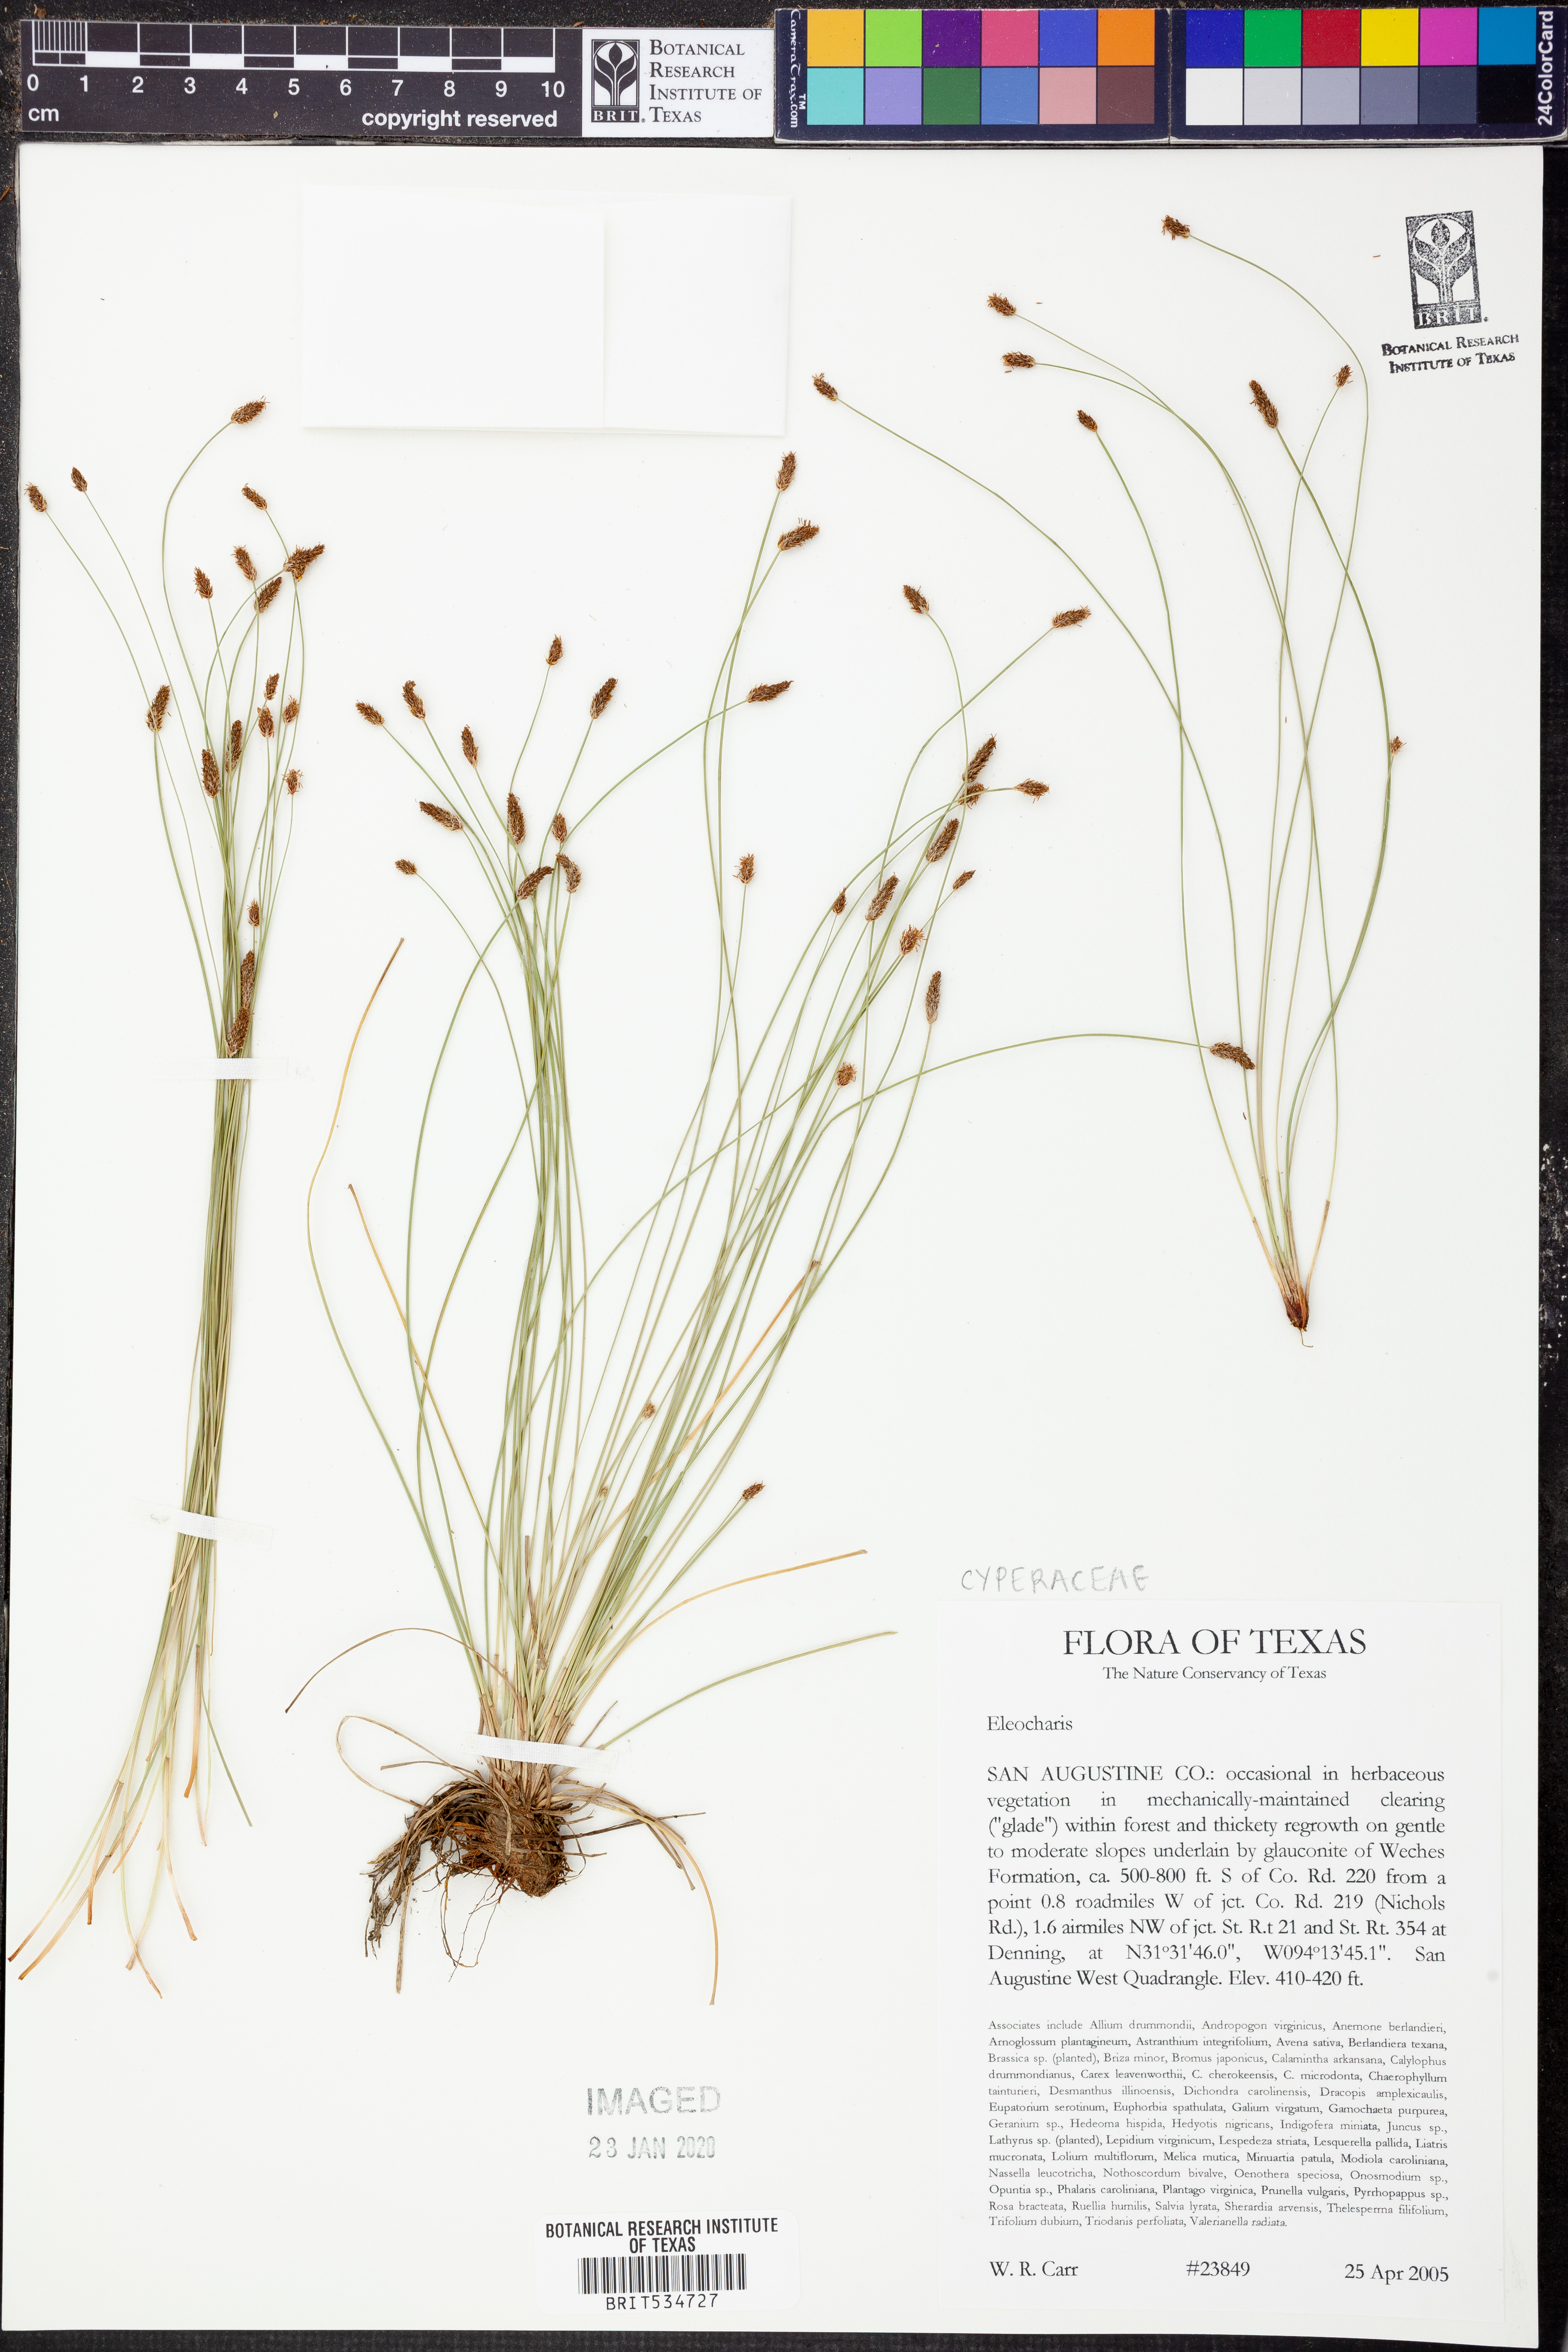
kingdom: Plantae
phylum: Tracheophyta
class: Liliopsida
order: Poales
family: Cyperaceae
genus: Eleocharis
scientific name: Eleocharis
